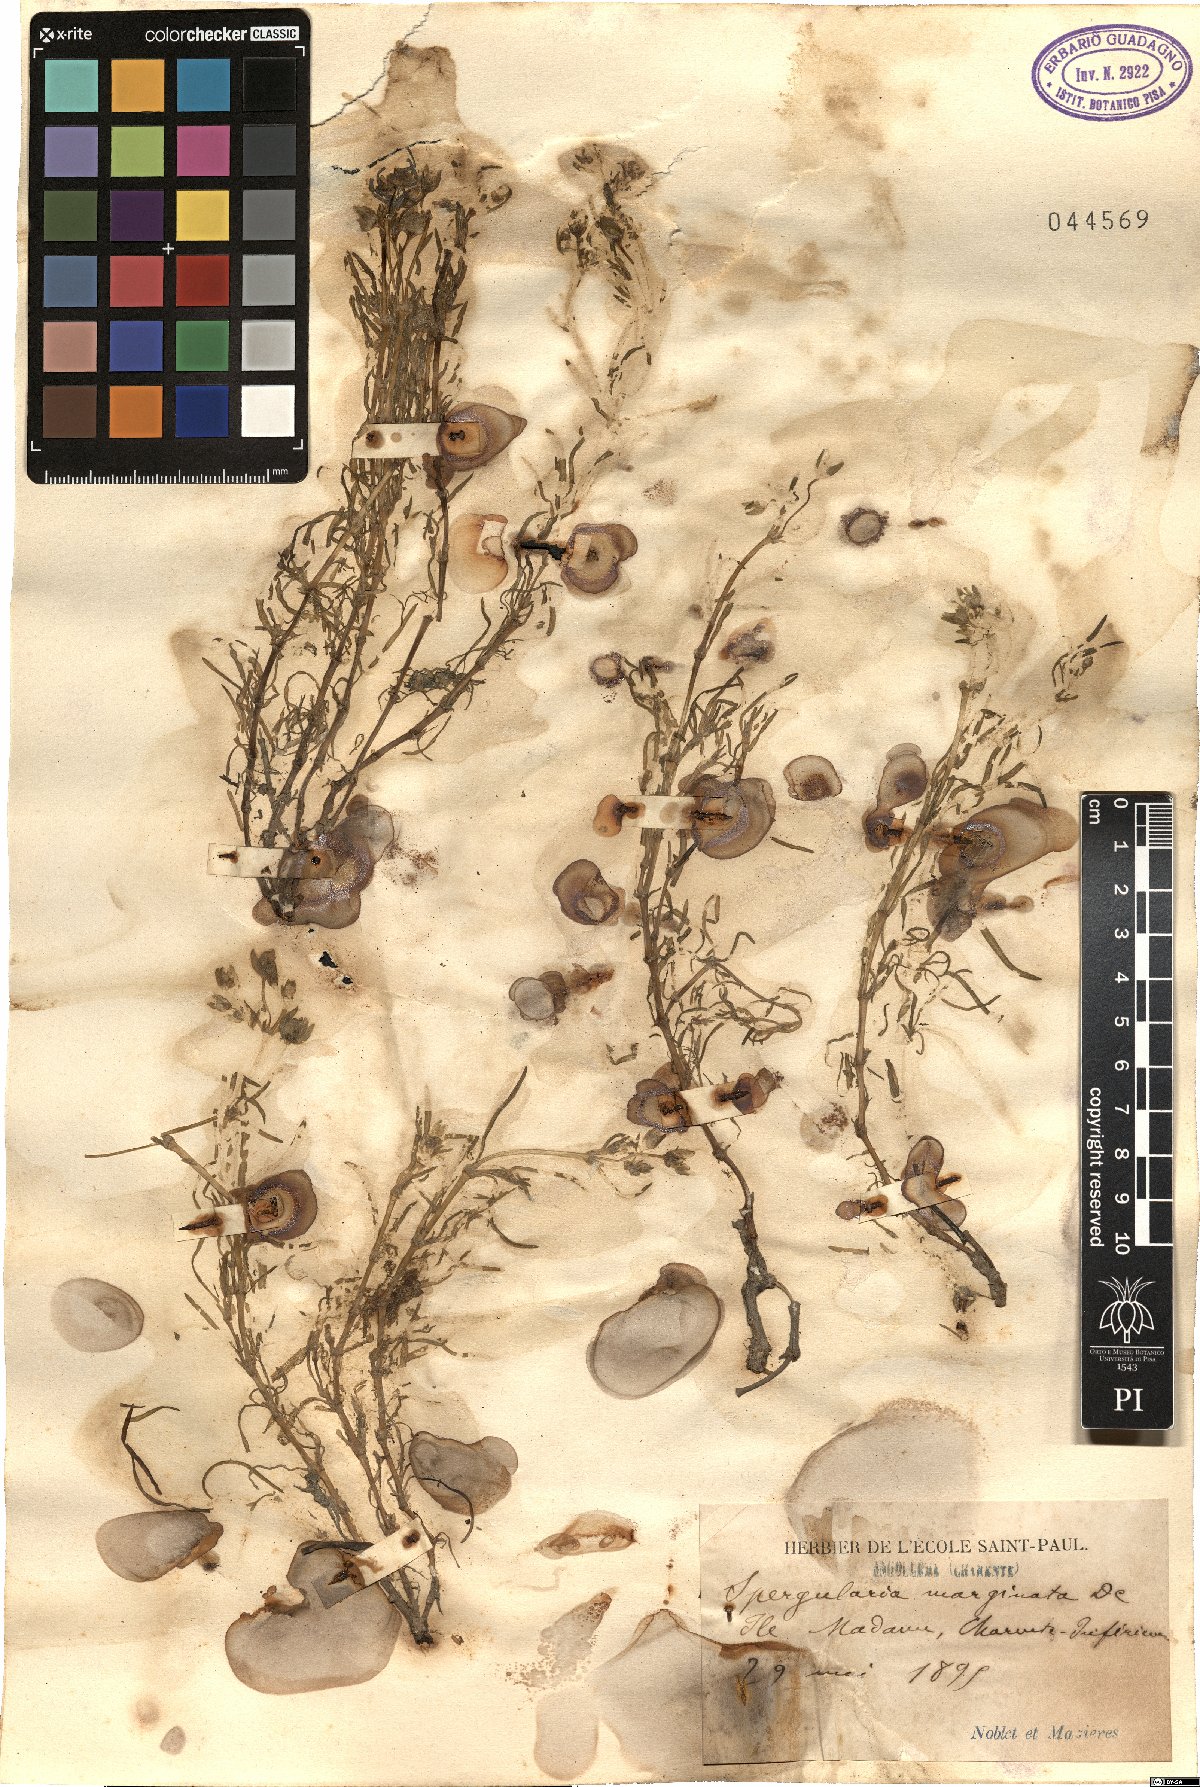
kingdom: Plantae
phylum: Tracheophyta
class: Magnoliopsida
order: Caryophyllales
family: Caryophyllaceae
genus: Spergularia
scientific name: Spergularia media
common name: Greater sea-spurrey
